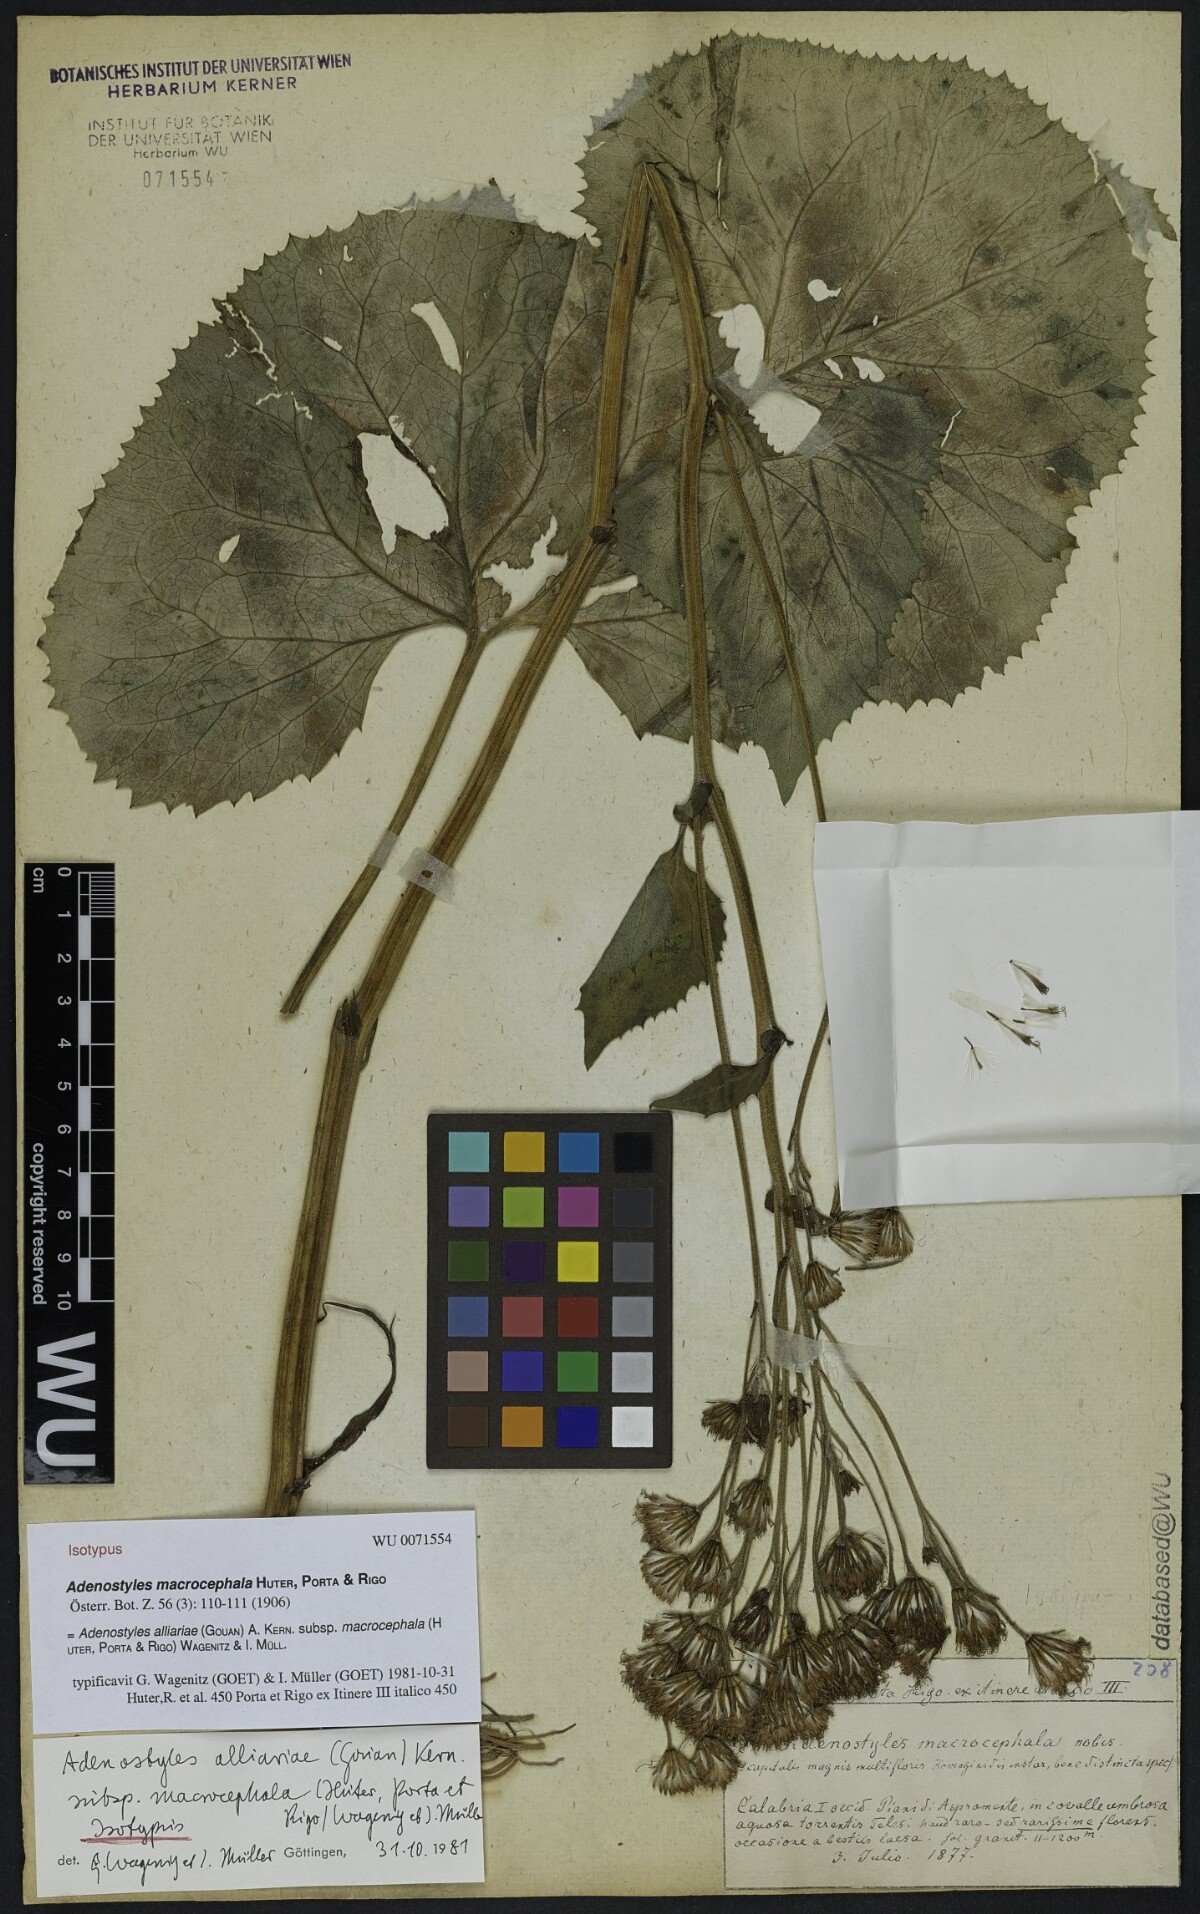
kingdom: Plantae
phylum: Tracheophyta
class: Magnoliopsida
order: Asterales
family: Asteraceae
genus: Adenostyles
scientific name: Adenostyles alpina
